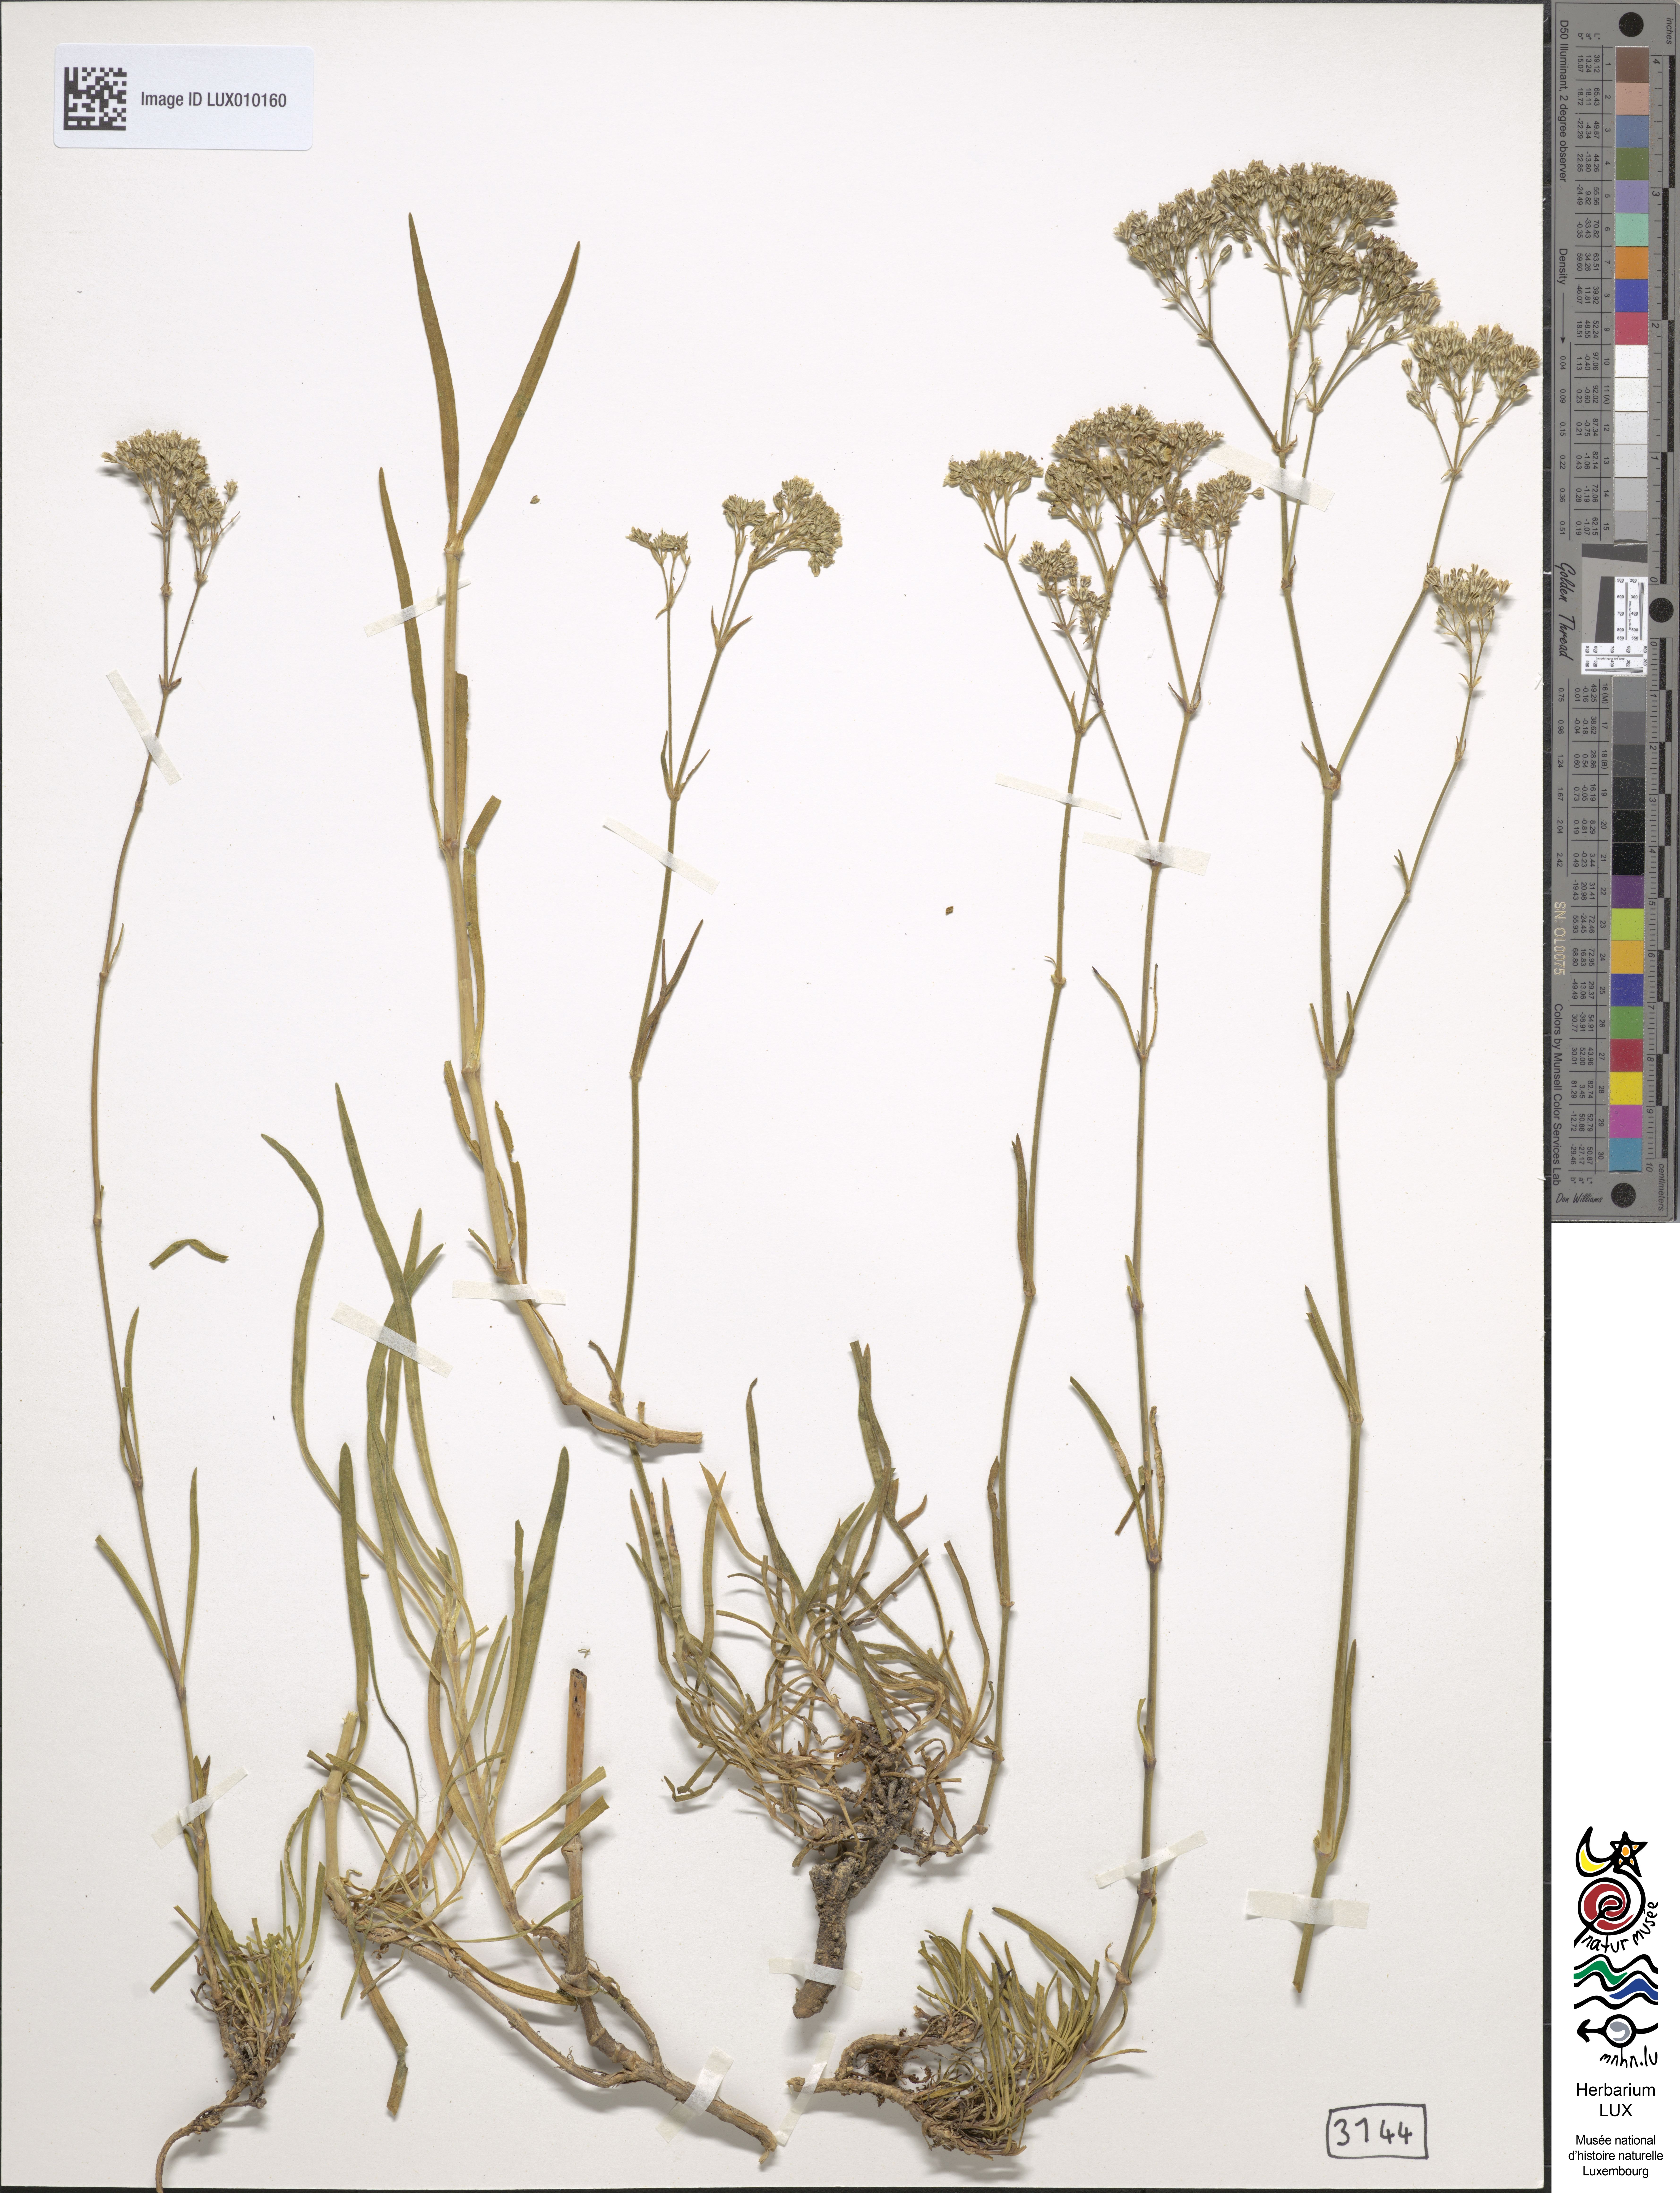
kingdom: Plantae
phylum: Tracheophyta
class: Magnoliopsida
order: Caryophyllales
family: Caryophyllaceae
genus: Gypsophila
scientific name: Gypsophila fastigiata
